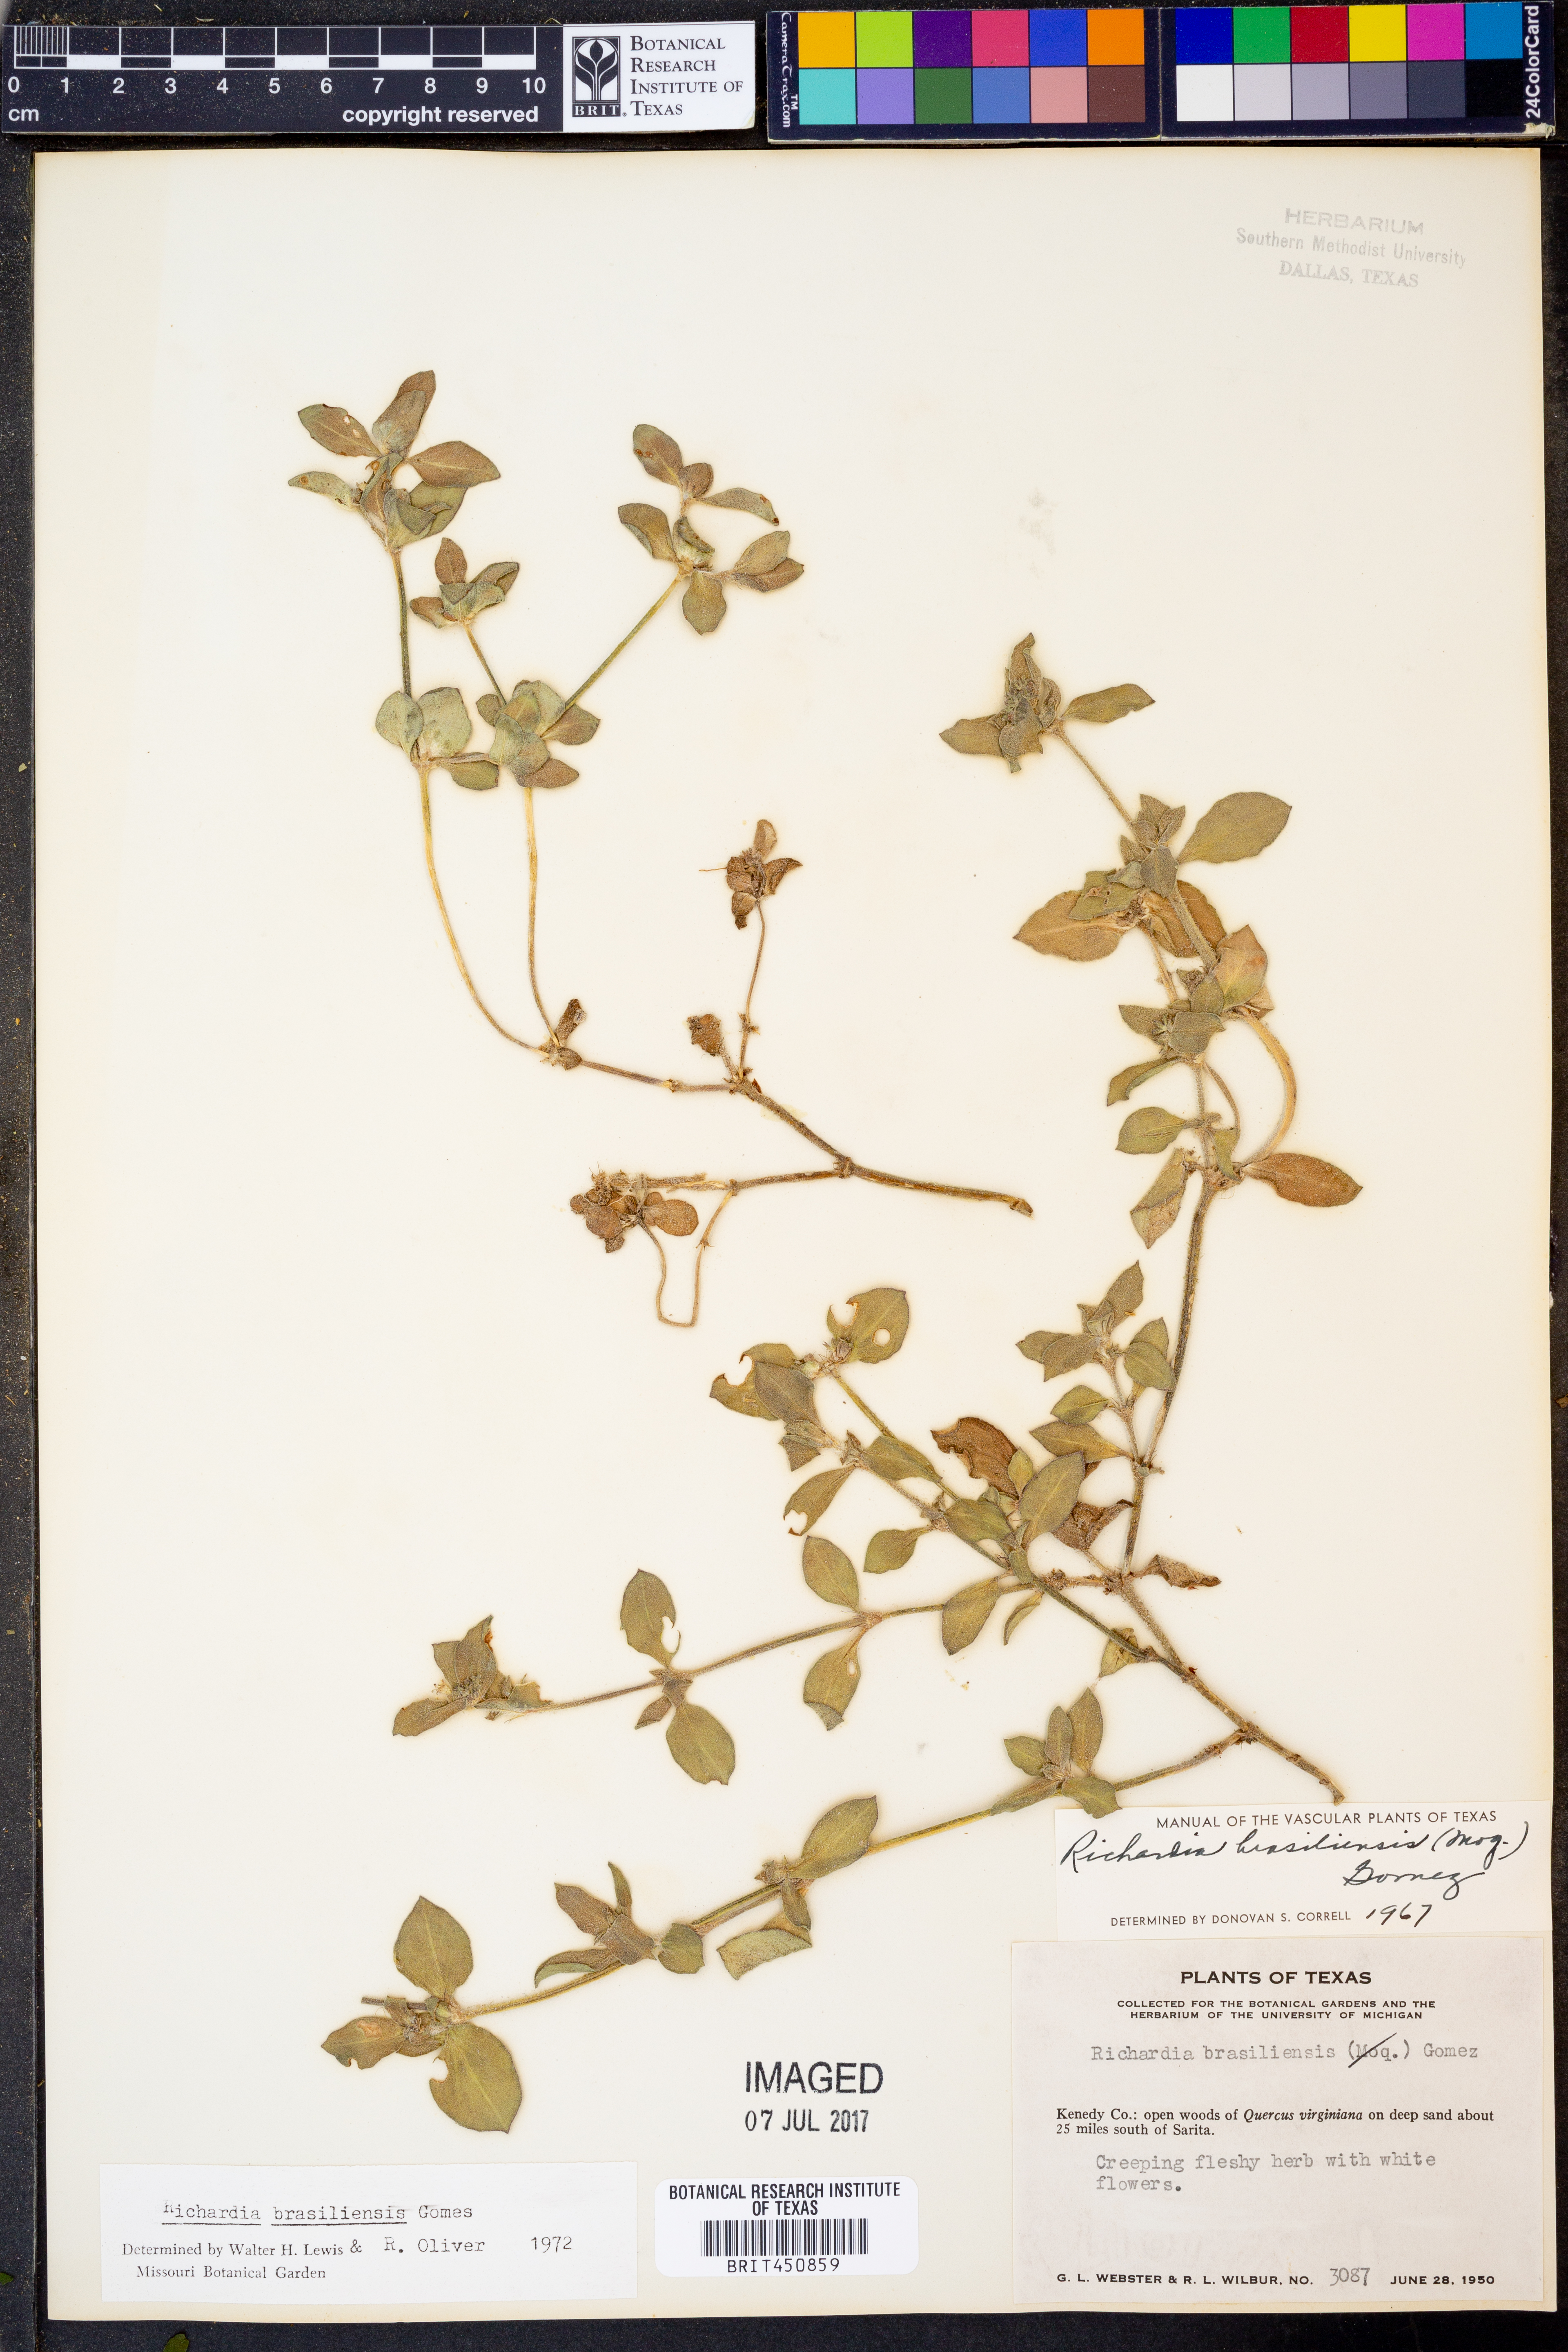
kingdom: Plantae
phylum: Tracheophyta
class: Magnoliopsida
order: Gentianales
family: Rubiaceae
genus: Richardia
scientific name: Richardia brasiliensis
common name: Tropical mexican clover
